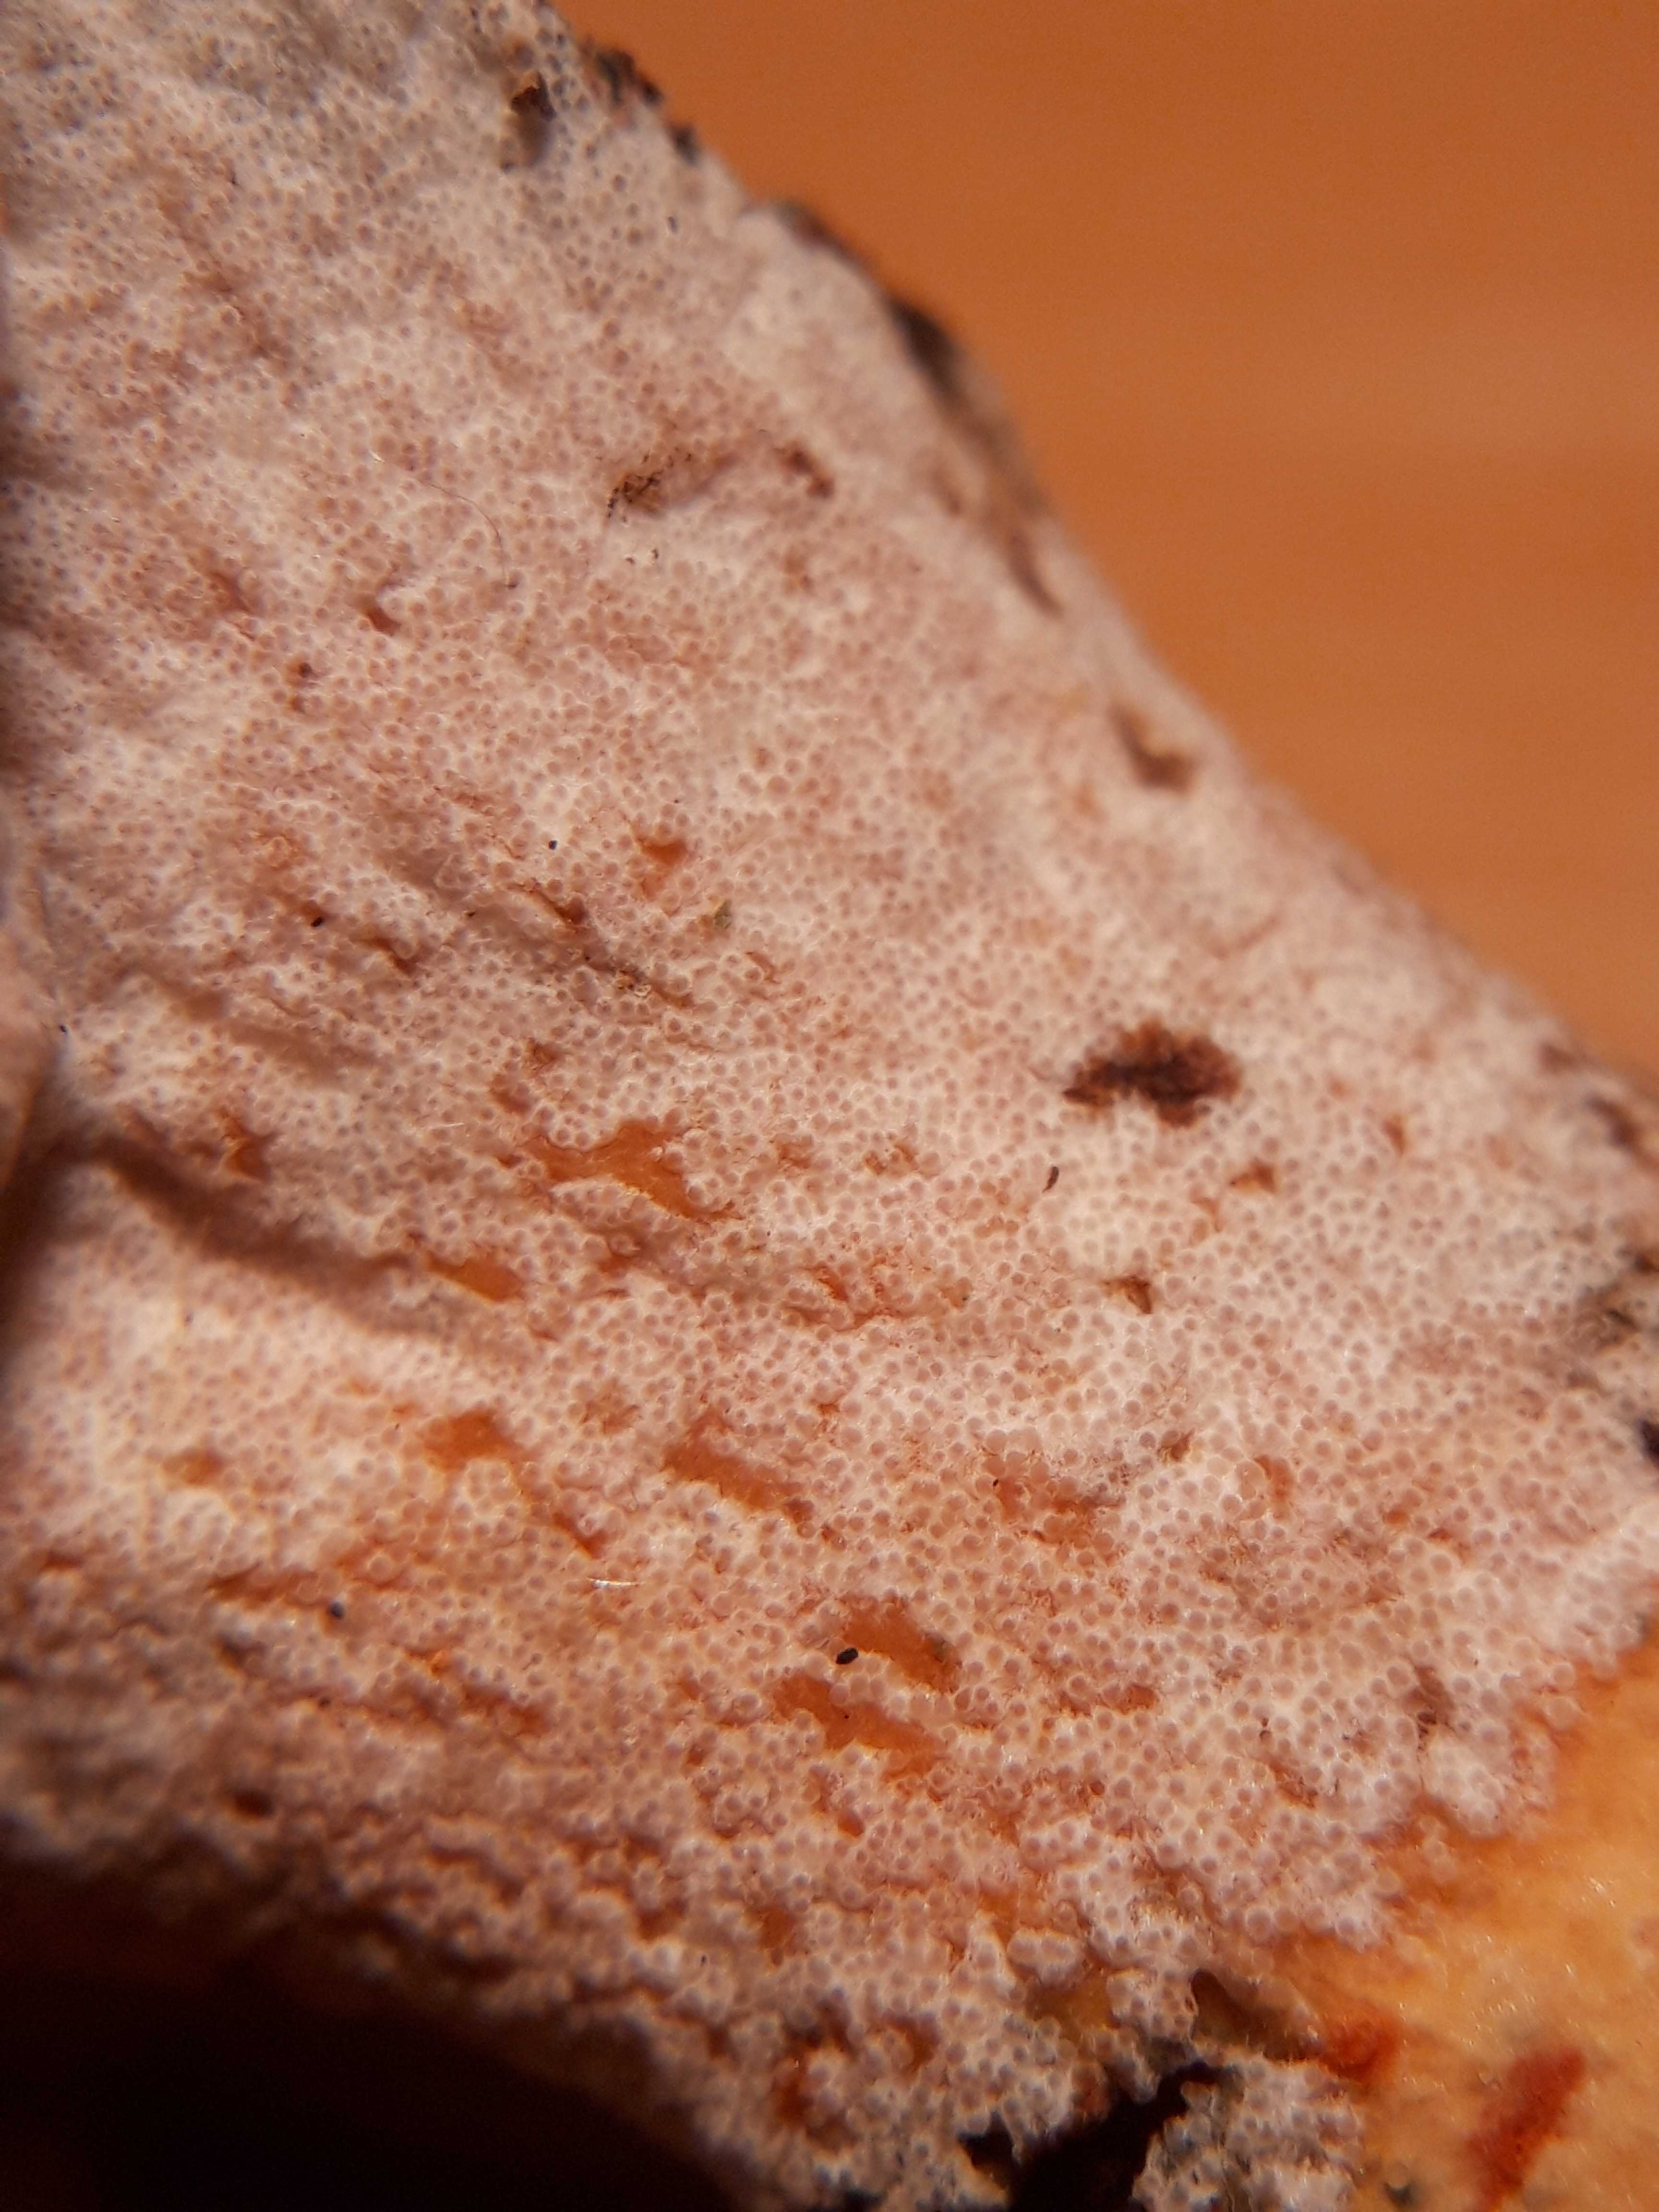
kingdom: Fungi
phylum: Ascomycota
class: Sordariomycetes
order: Hypocreales
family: Hypocreaceae
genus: Hypomyces
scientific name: Hypomyces lateritius
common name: mælkehat-snylteskorpe
